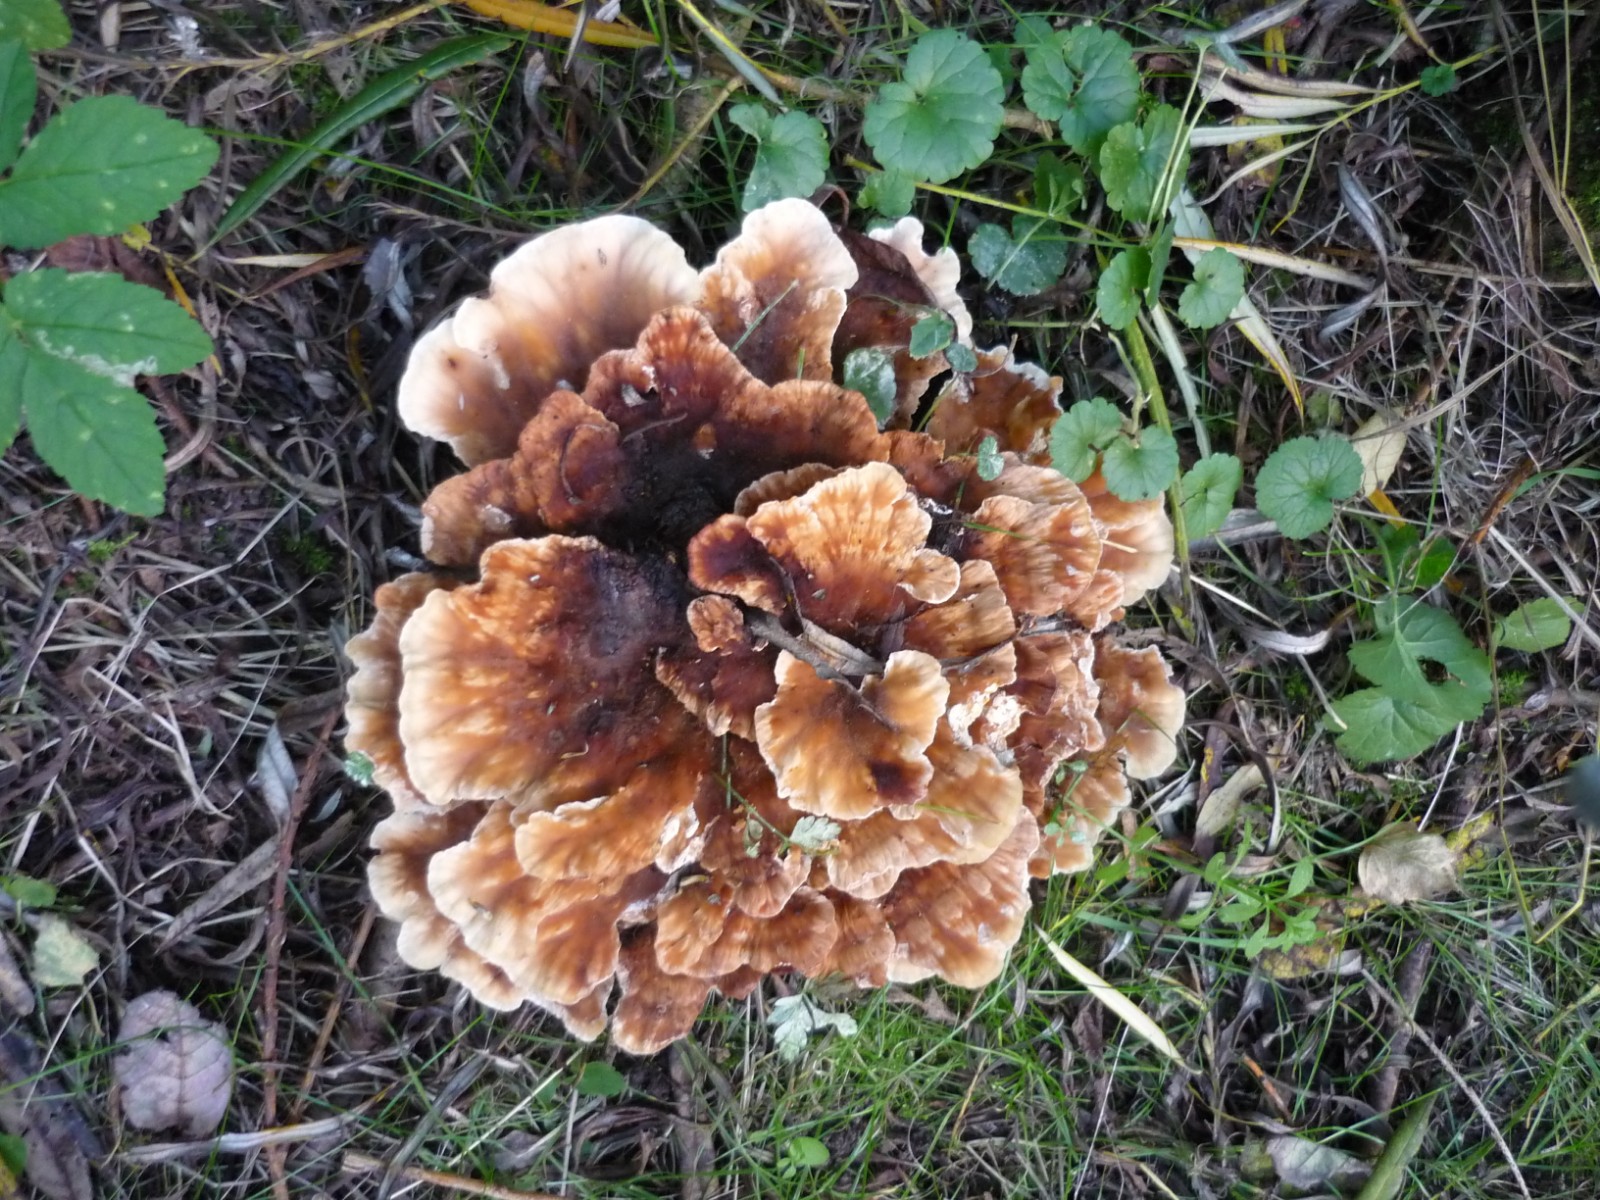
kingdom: Fungi
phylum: Basidiomycota
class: Agaricomycetes
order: Polyporales
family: Podoscyphaceae
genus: Abortiporus
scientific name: Abortiporus biennis
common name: rødmende pjalteporesvamp
